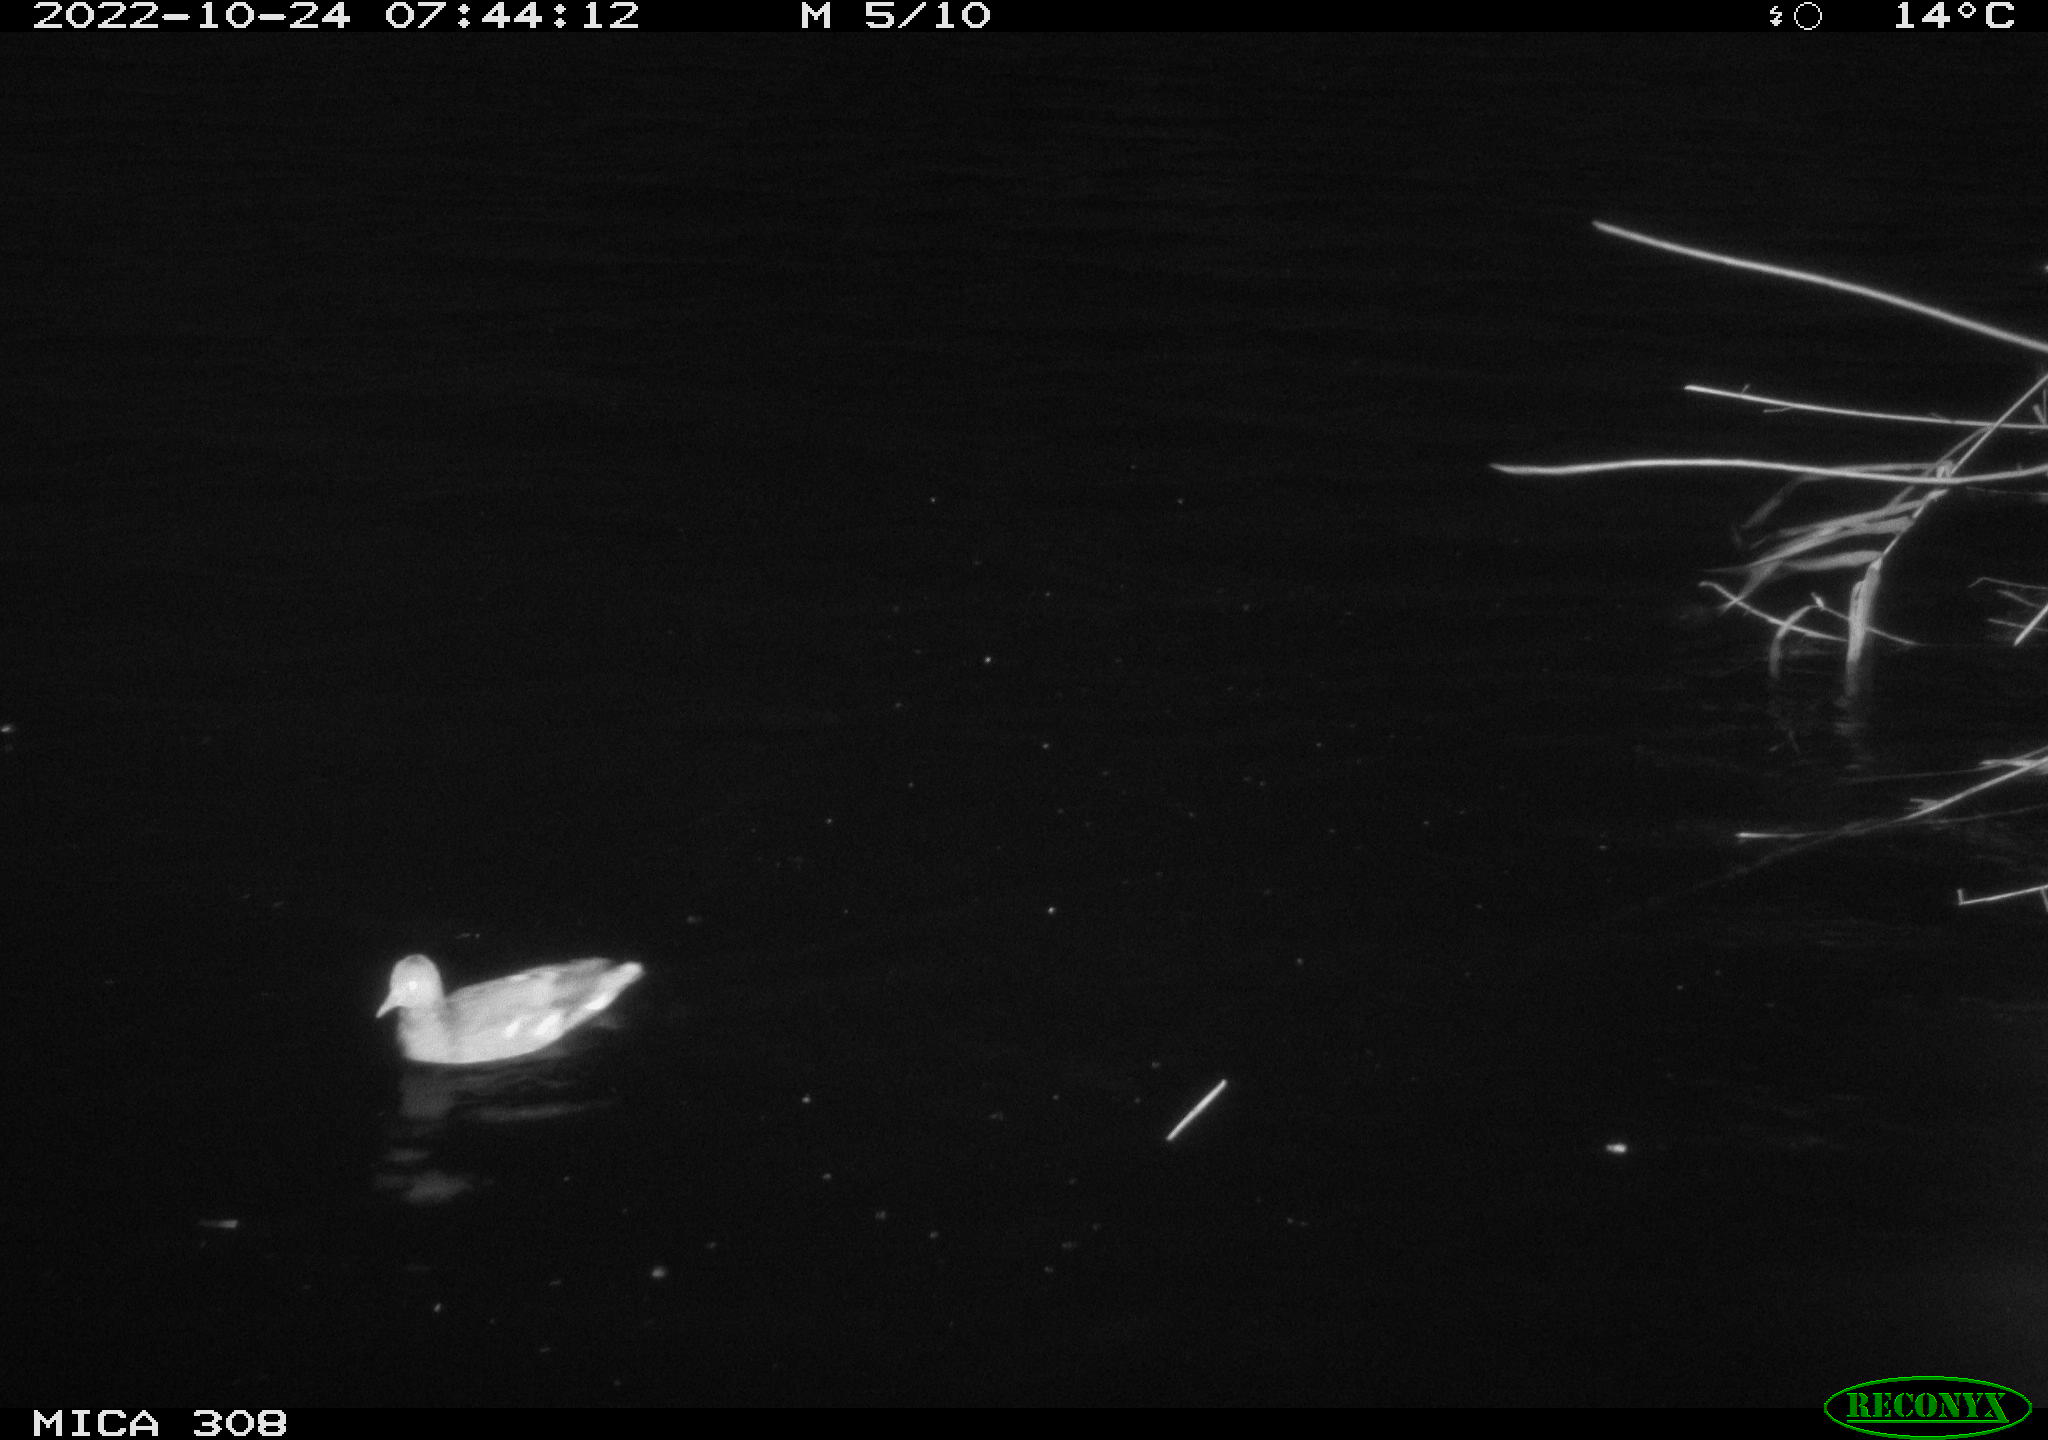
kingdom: Animalia
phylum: Chordata
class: Aves
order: Anseriformes
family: Anatidae
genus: Anas
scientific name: Anas
